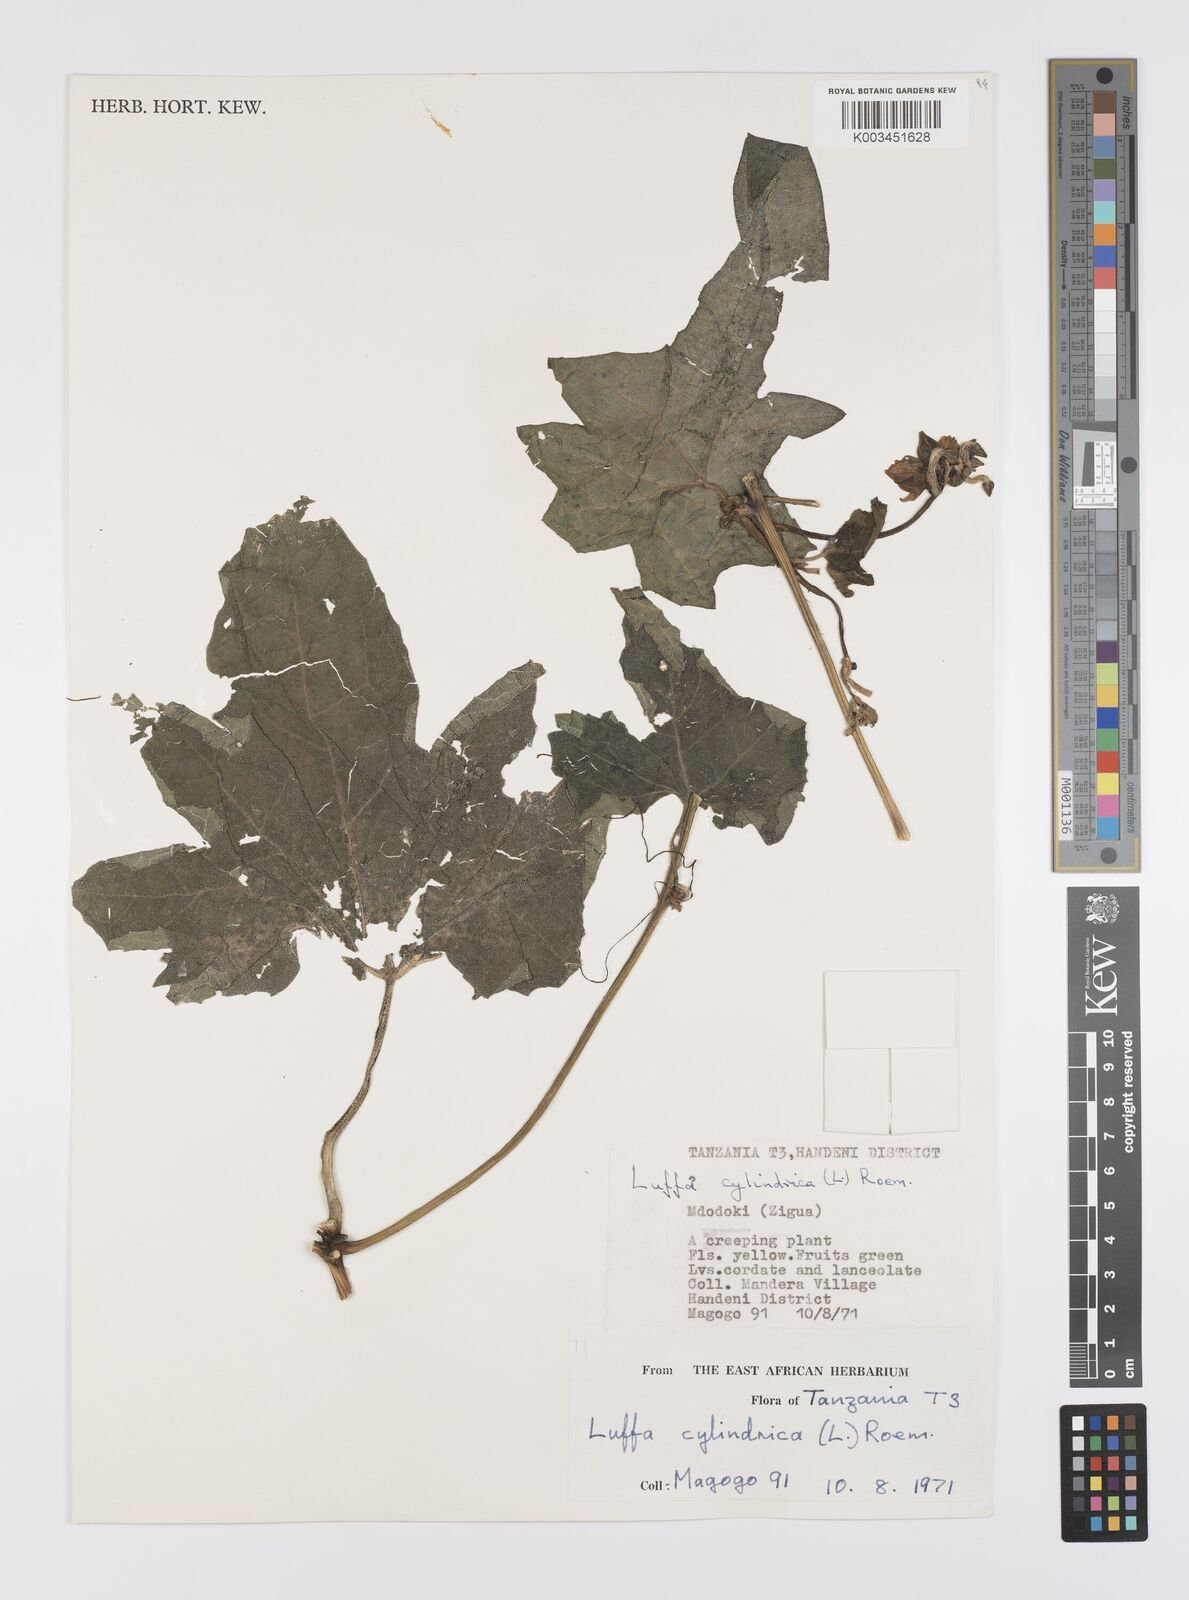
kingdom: Plantae
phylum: Tracheophyta
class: Magnoliopsida
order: Cucurbitales
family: Cucurbitaceae
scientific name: Cucurbitaceae
